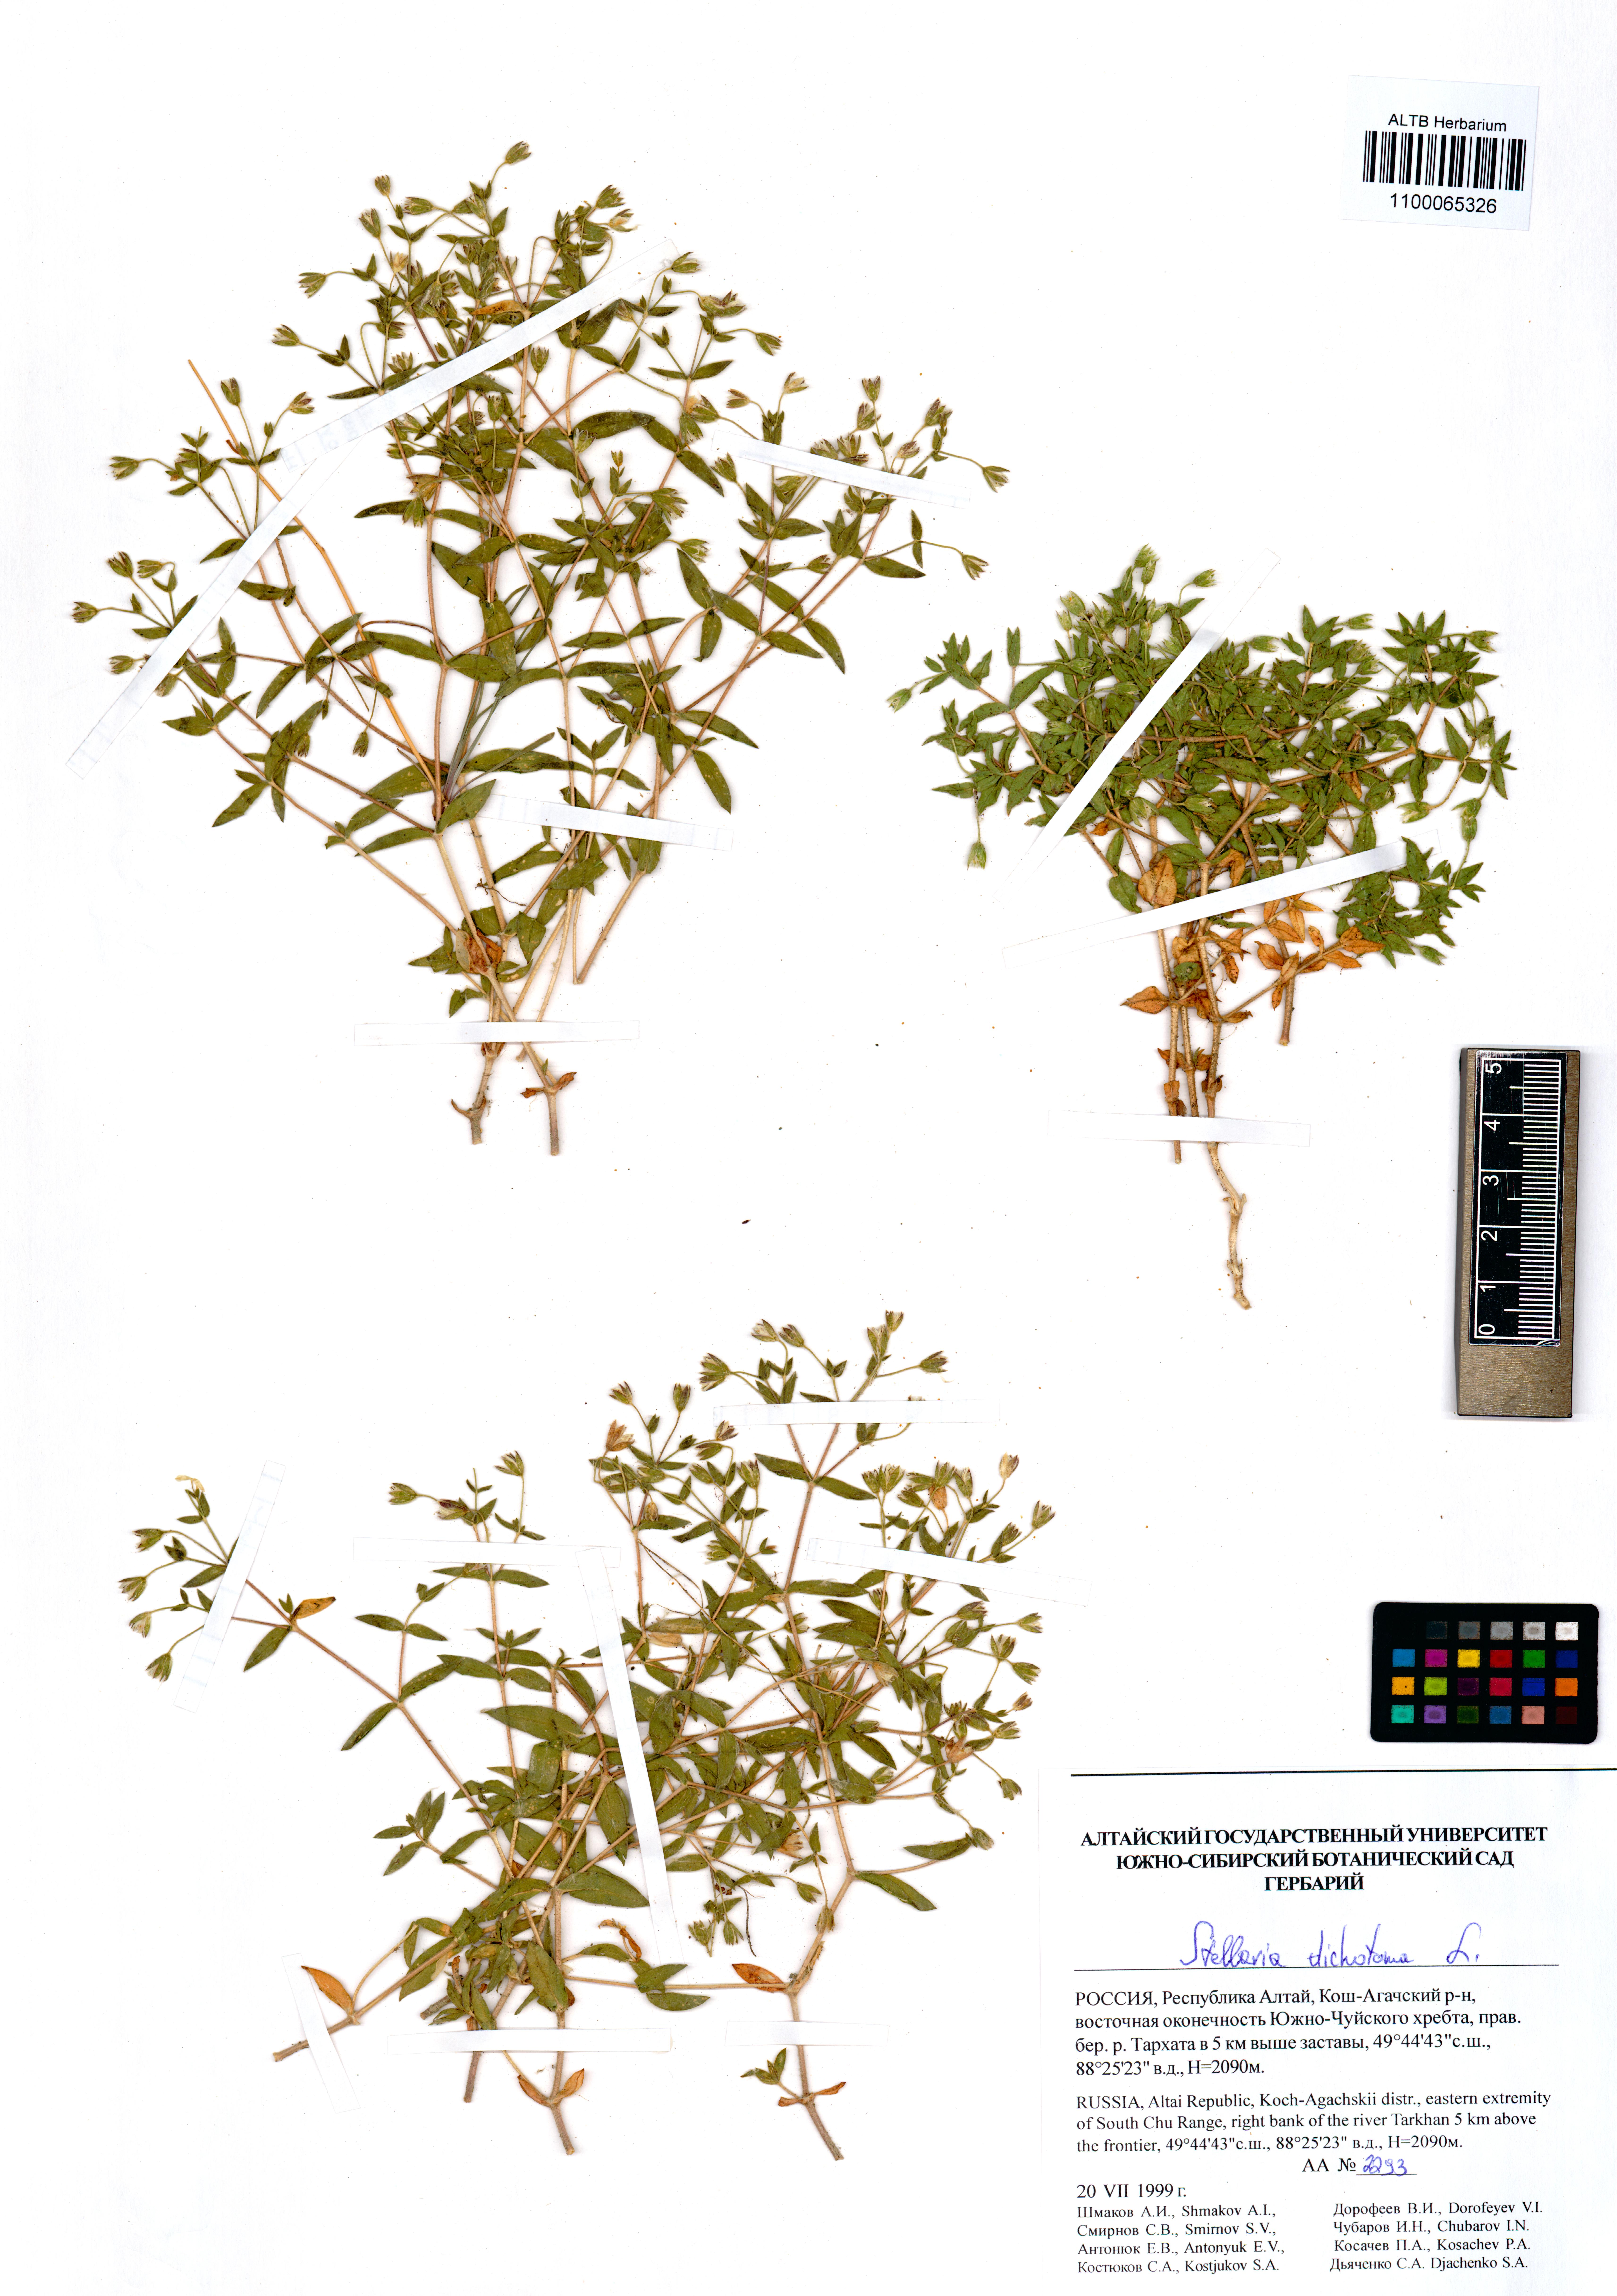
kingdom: Plantae
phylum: Tracheophyta
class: Magnoliopsida
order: Caryophyllales
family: Caryophyllaceae
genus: Mesostemma
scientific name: Mesostemma dichotomum
